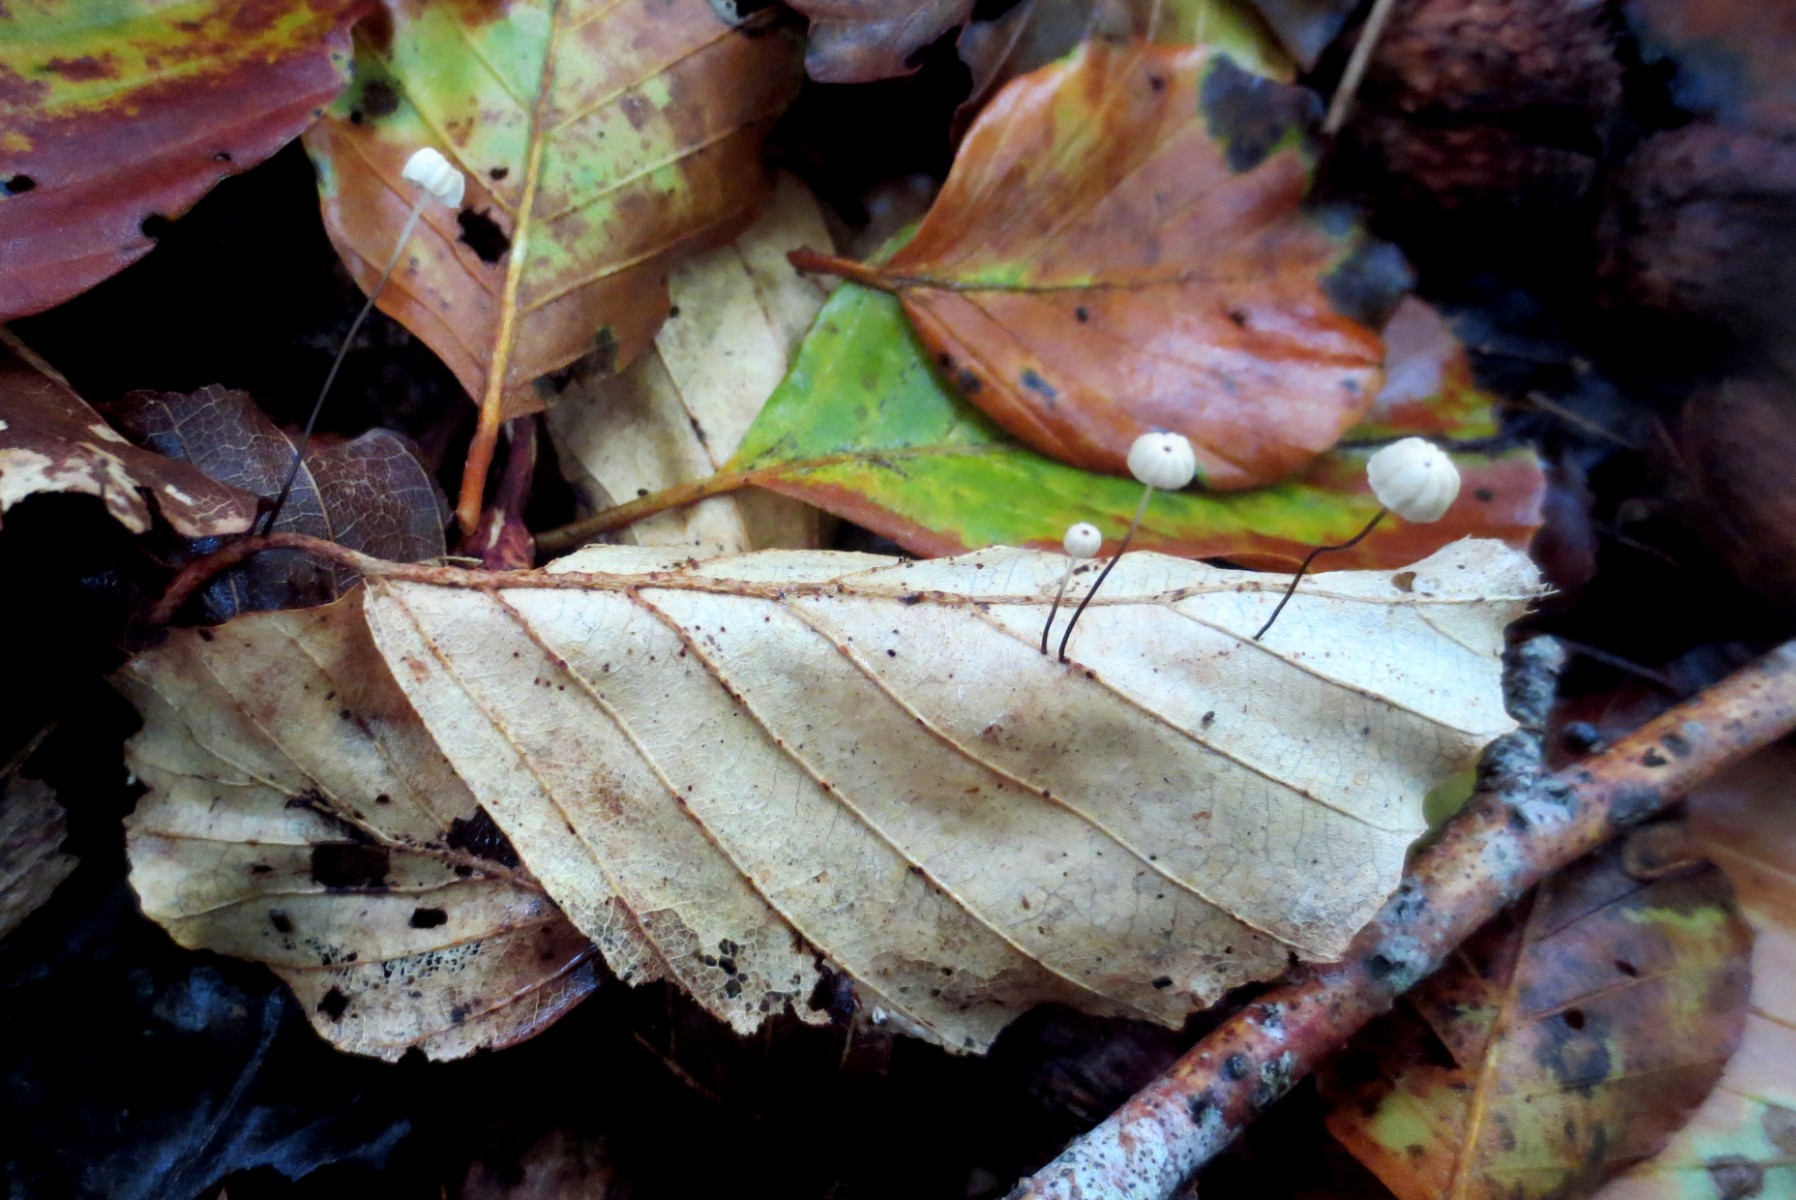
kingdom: Fungi
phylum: Basidiomycota
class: Agaricomycetes
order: Agaricales
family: Marasmiaceae
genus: Marasmius
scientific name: Marasmius bulliardii
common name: furet bruskhat
